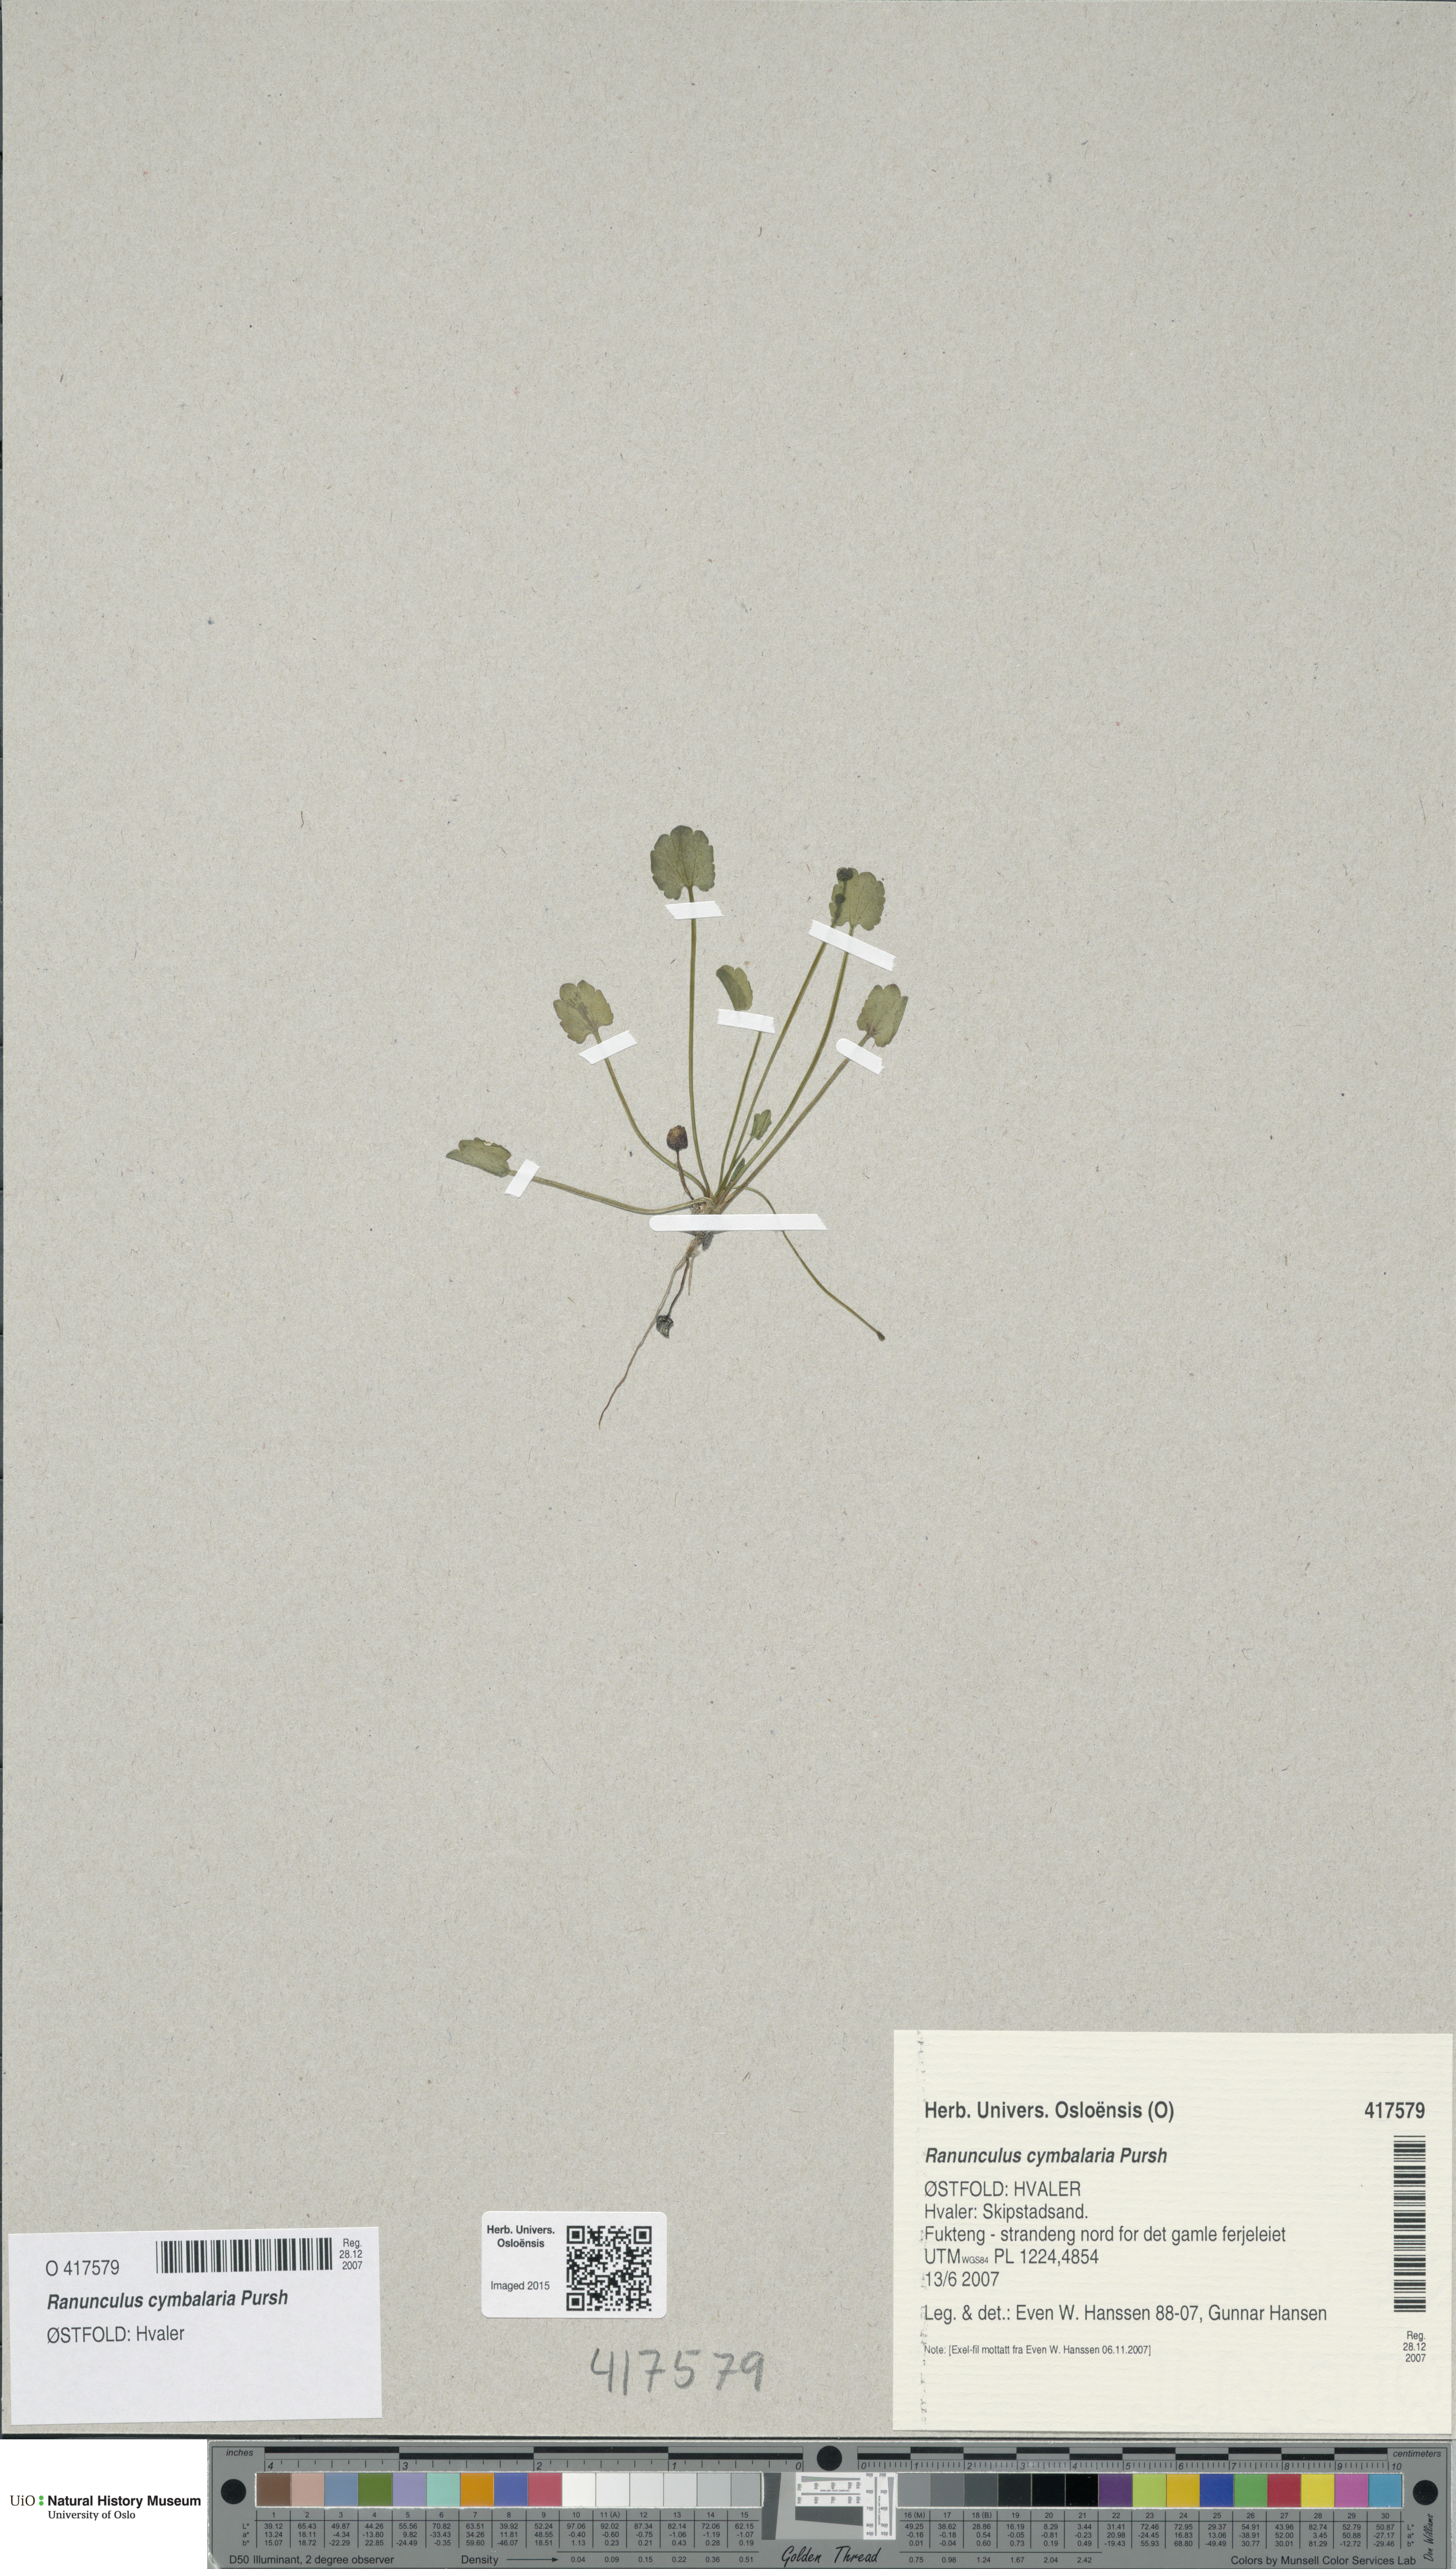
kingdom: Plantae
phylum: Tracheophyta
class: Magnoliopsida
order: Ranunculales
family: Ranunculaceae
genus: Halerpestes
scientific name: Halerpestes cymbalaria
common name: Seaside crowfoot
